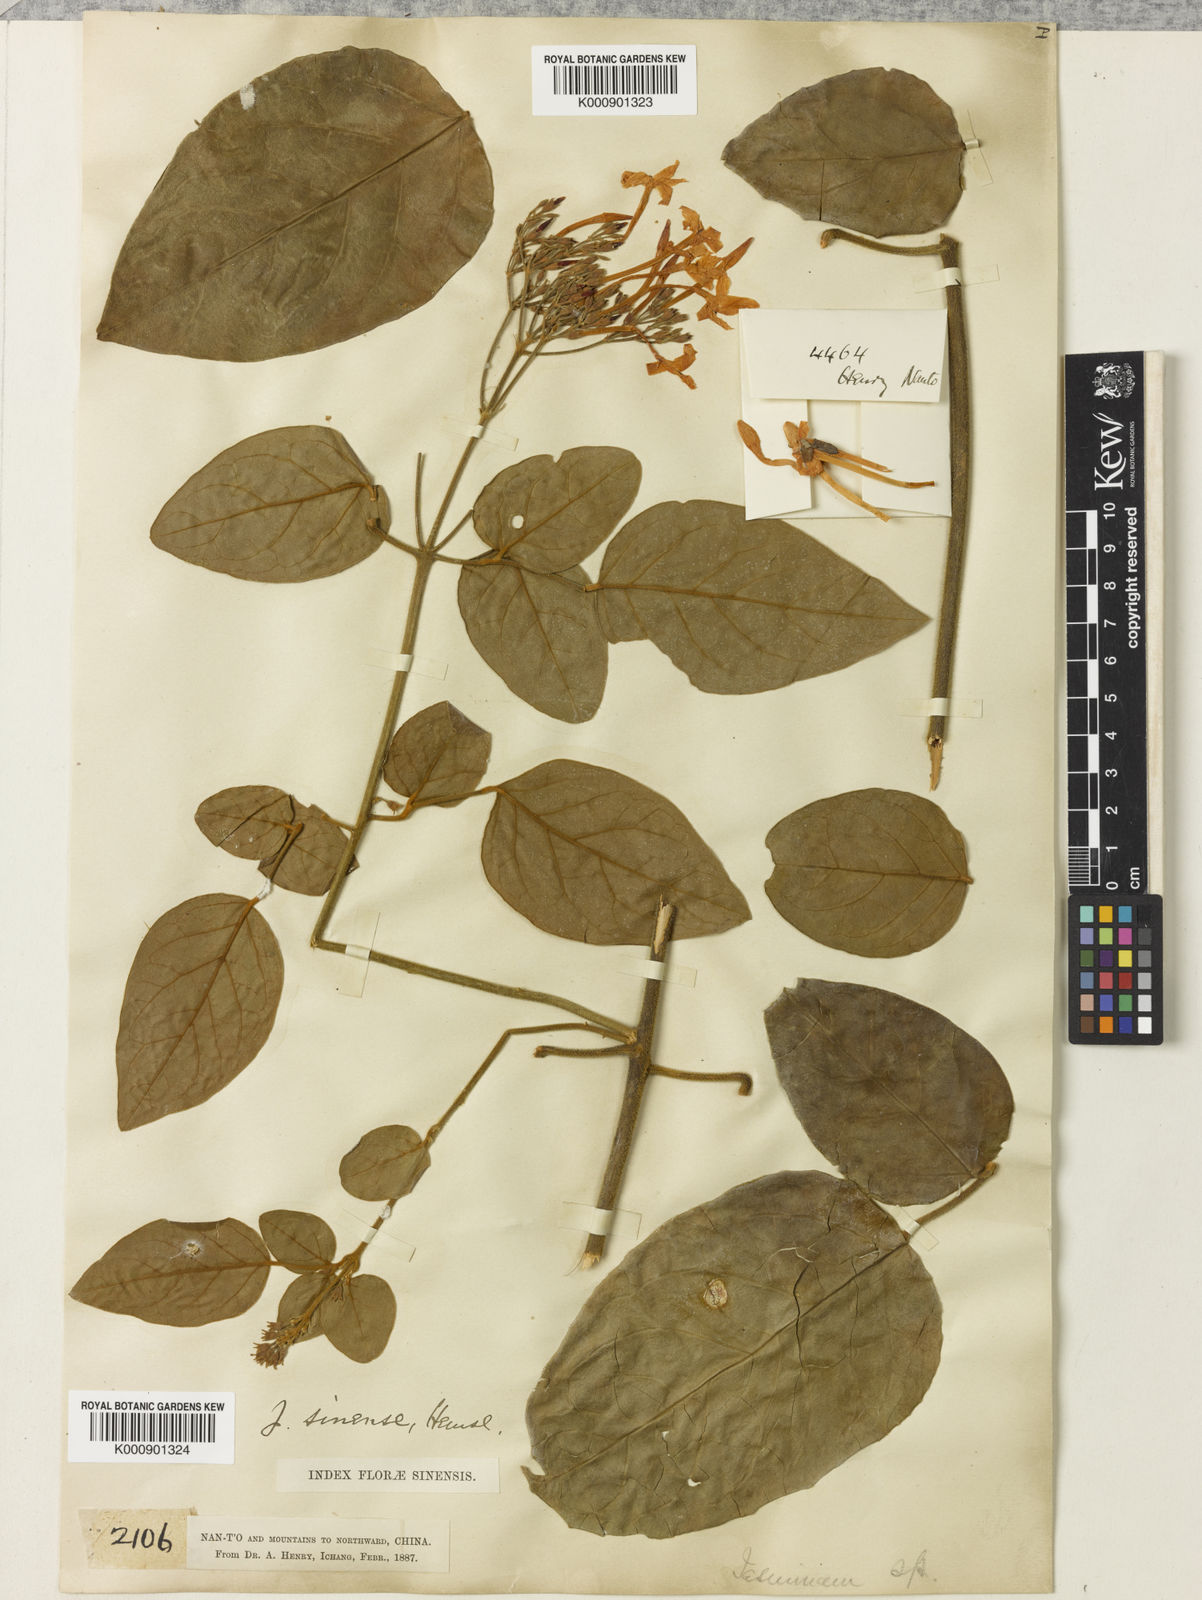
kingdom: Plantae
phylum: Tracheophyta
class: Magnoliopsida
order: Lamiales
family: Oleaceae
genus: Jasminum
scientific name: Jasminum sinense
